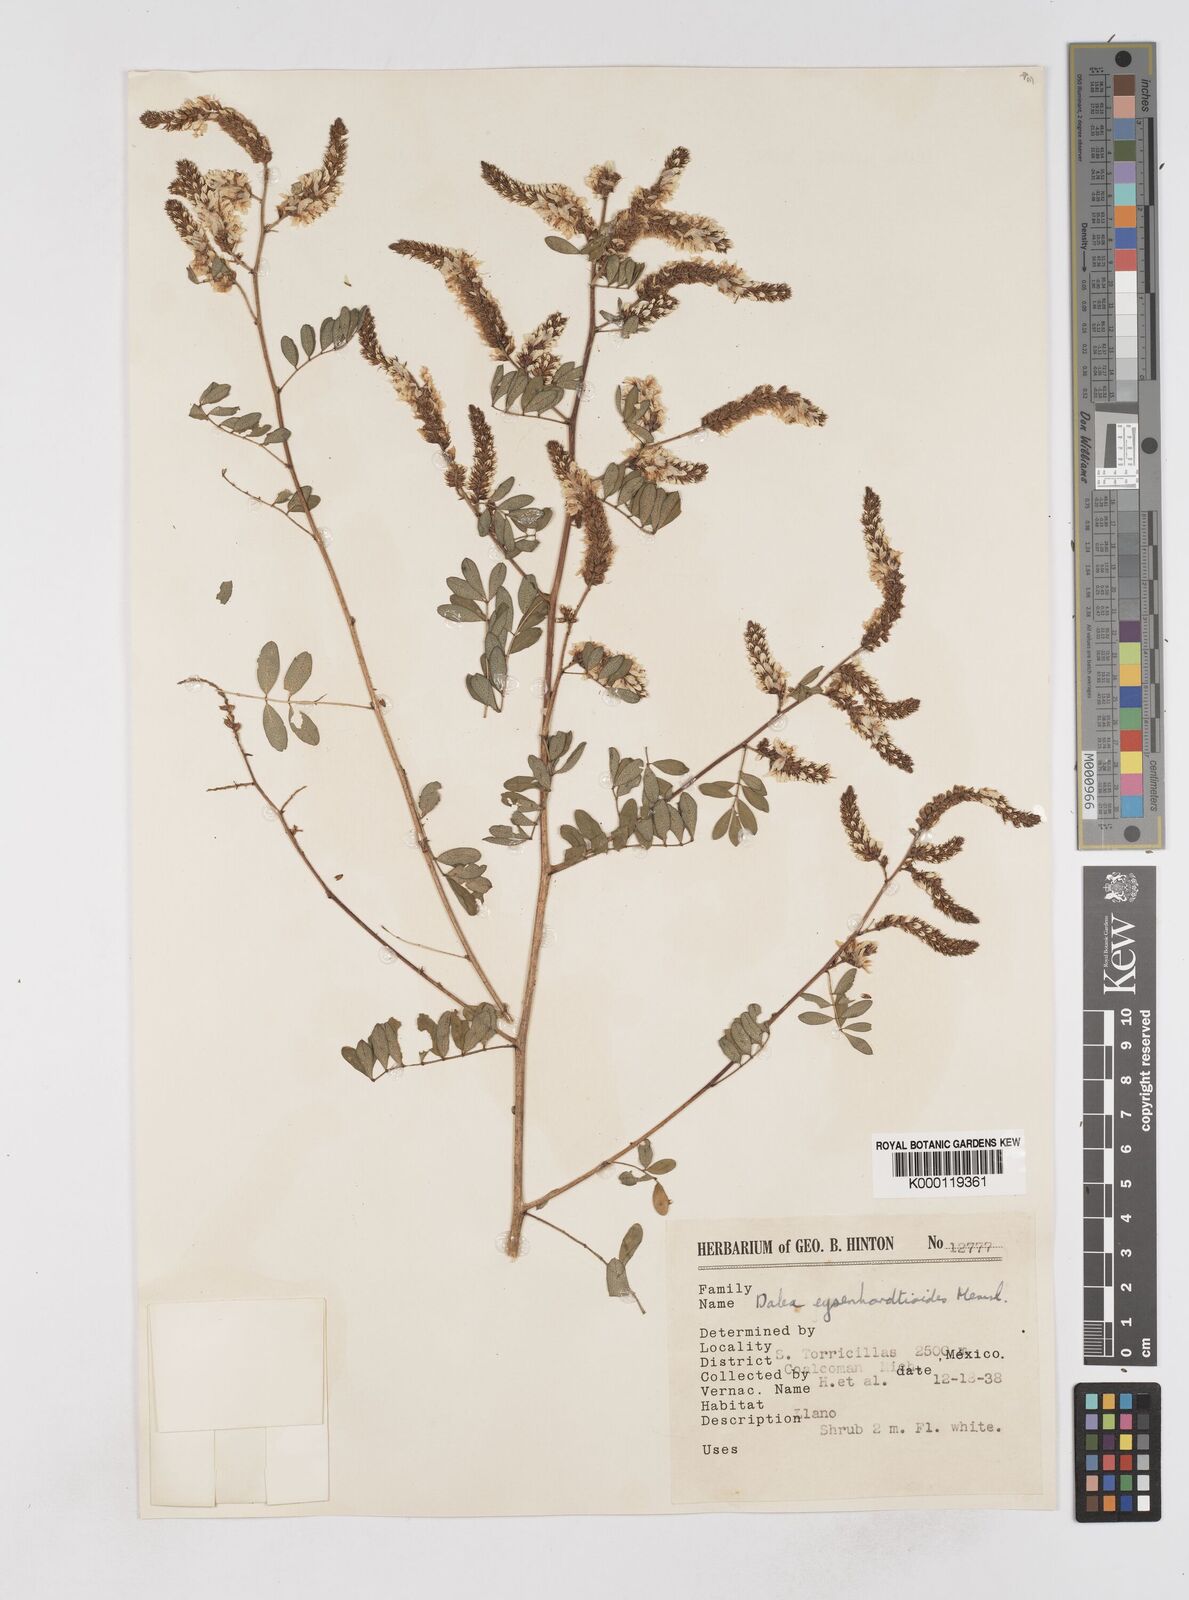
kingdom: Plantae
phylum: Tracheophyta
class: Magnoliopsida
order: Fabales
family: Fabaceae
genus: Dalea
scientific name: Dalea
